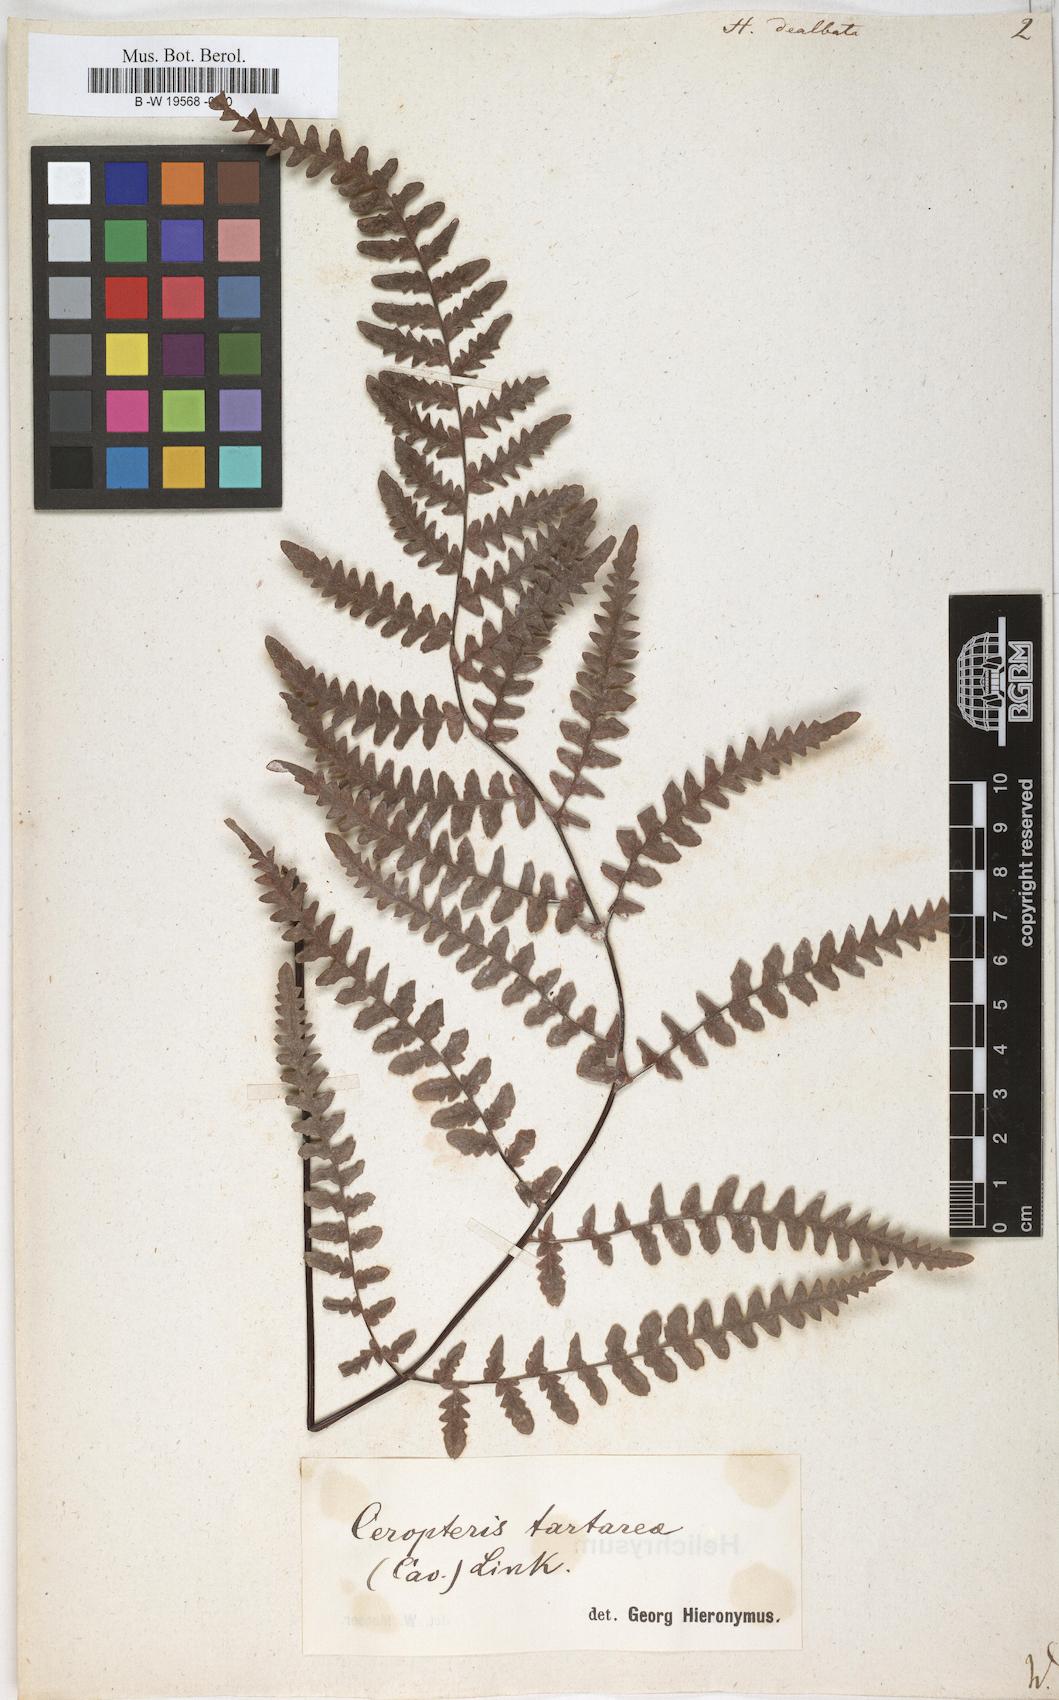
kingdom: Plantae
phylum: Tracheophyta
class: Polypodiopsida
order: Polypodiales
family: Pteridaceae
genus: Pityrogramma
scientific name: Pityrogramma ebenea
